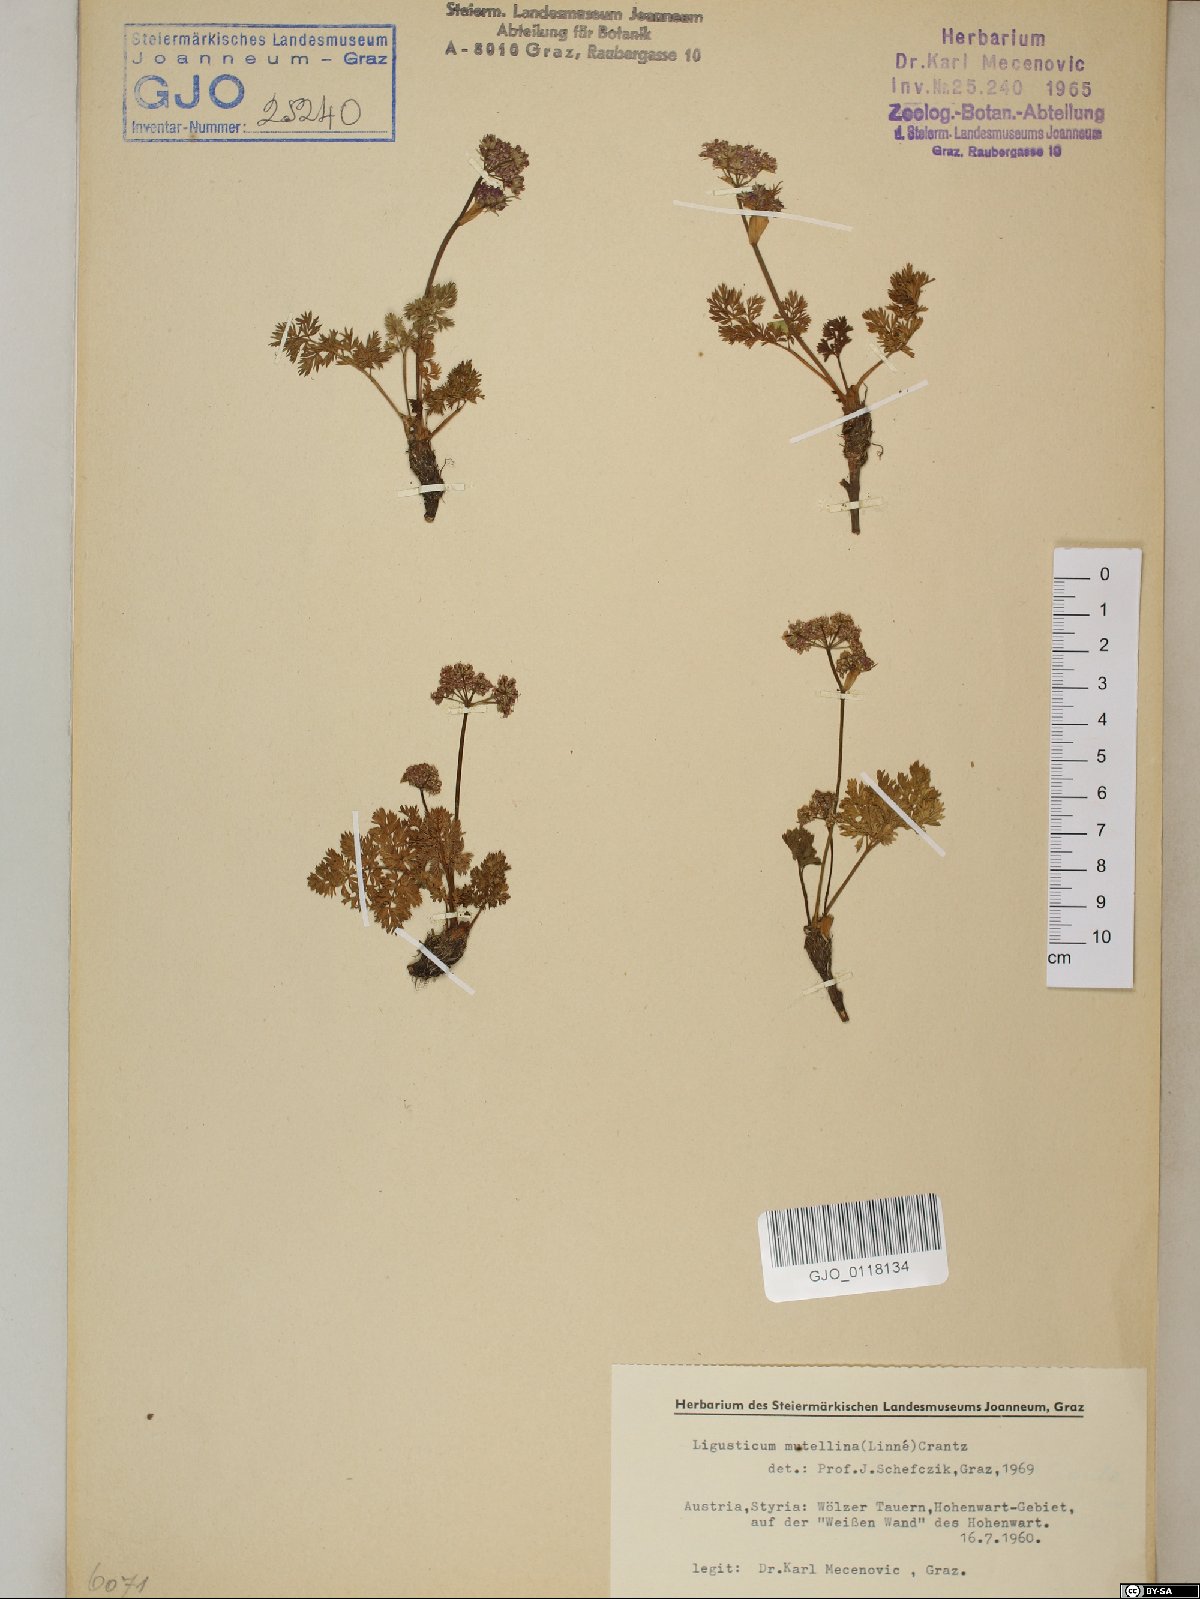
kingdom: Plantae
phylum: Tracheophyta
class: Magnoliopsida
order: Apiales
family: Apiaceae
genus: Mutellina
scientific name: Mutellina adonidifolia
